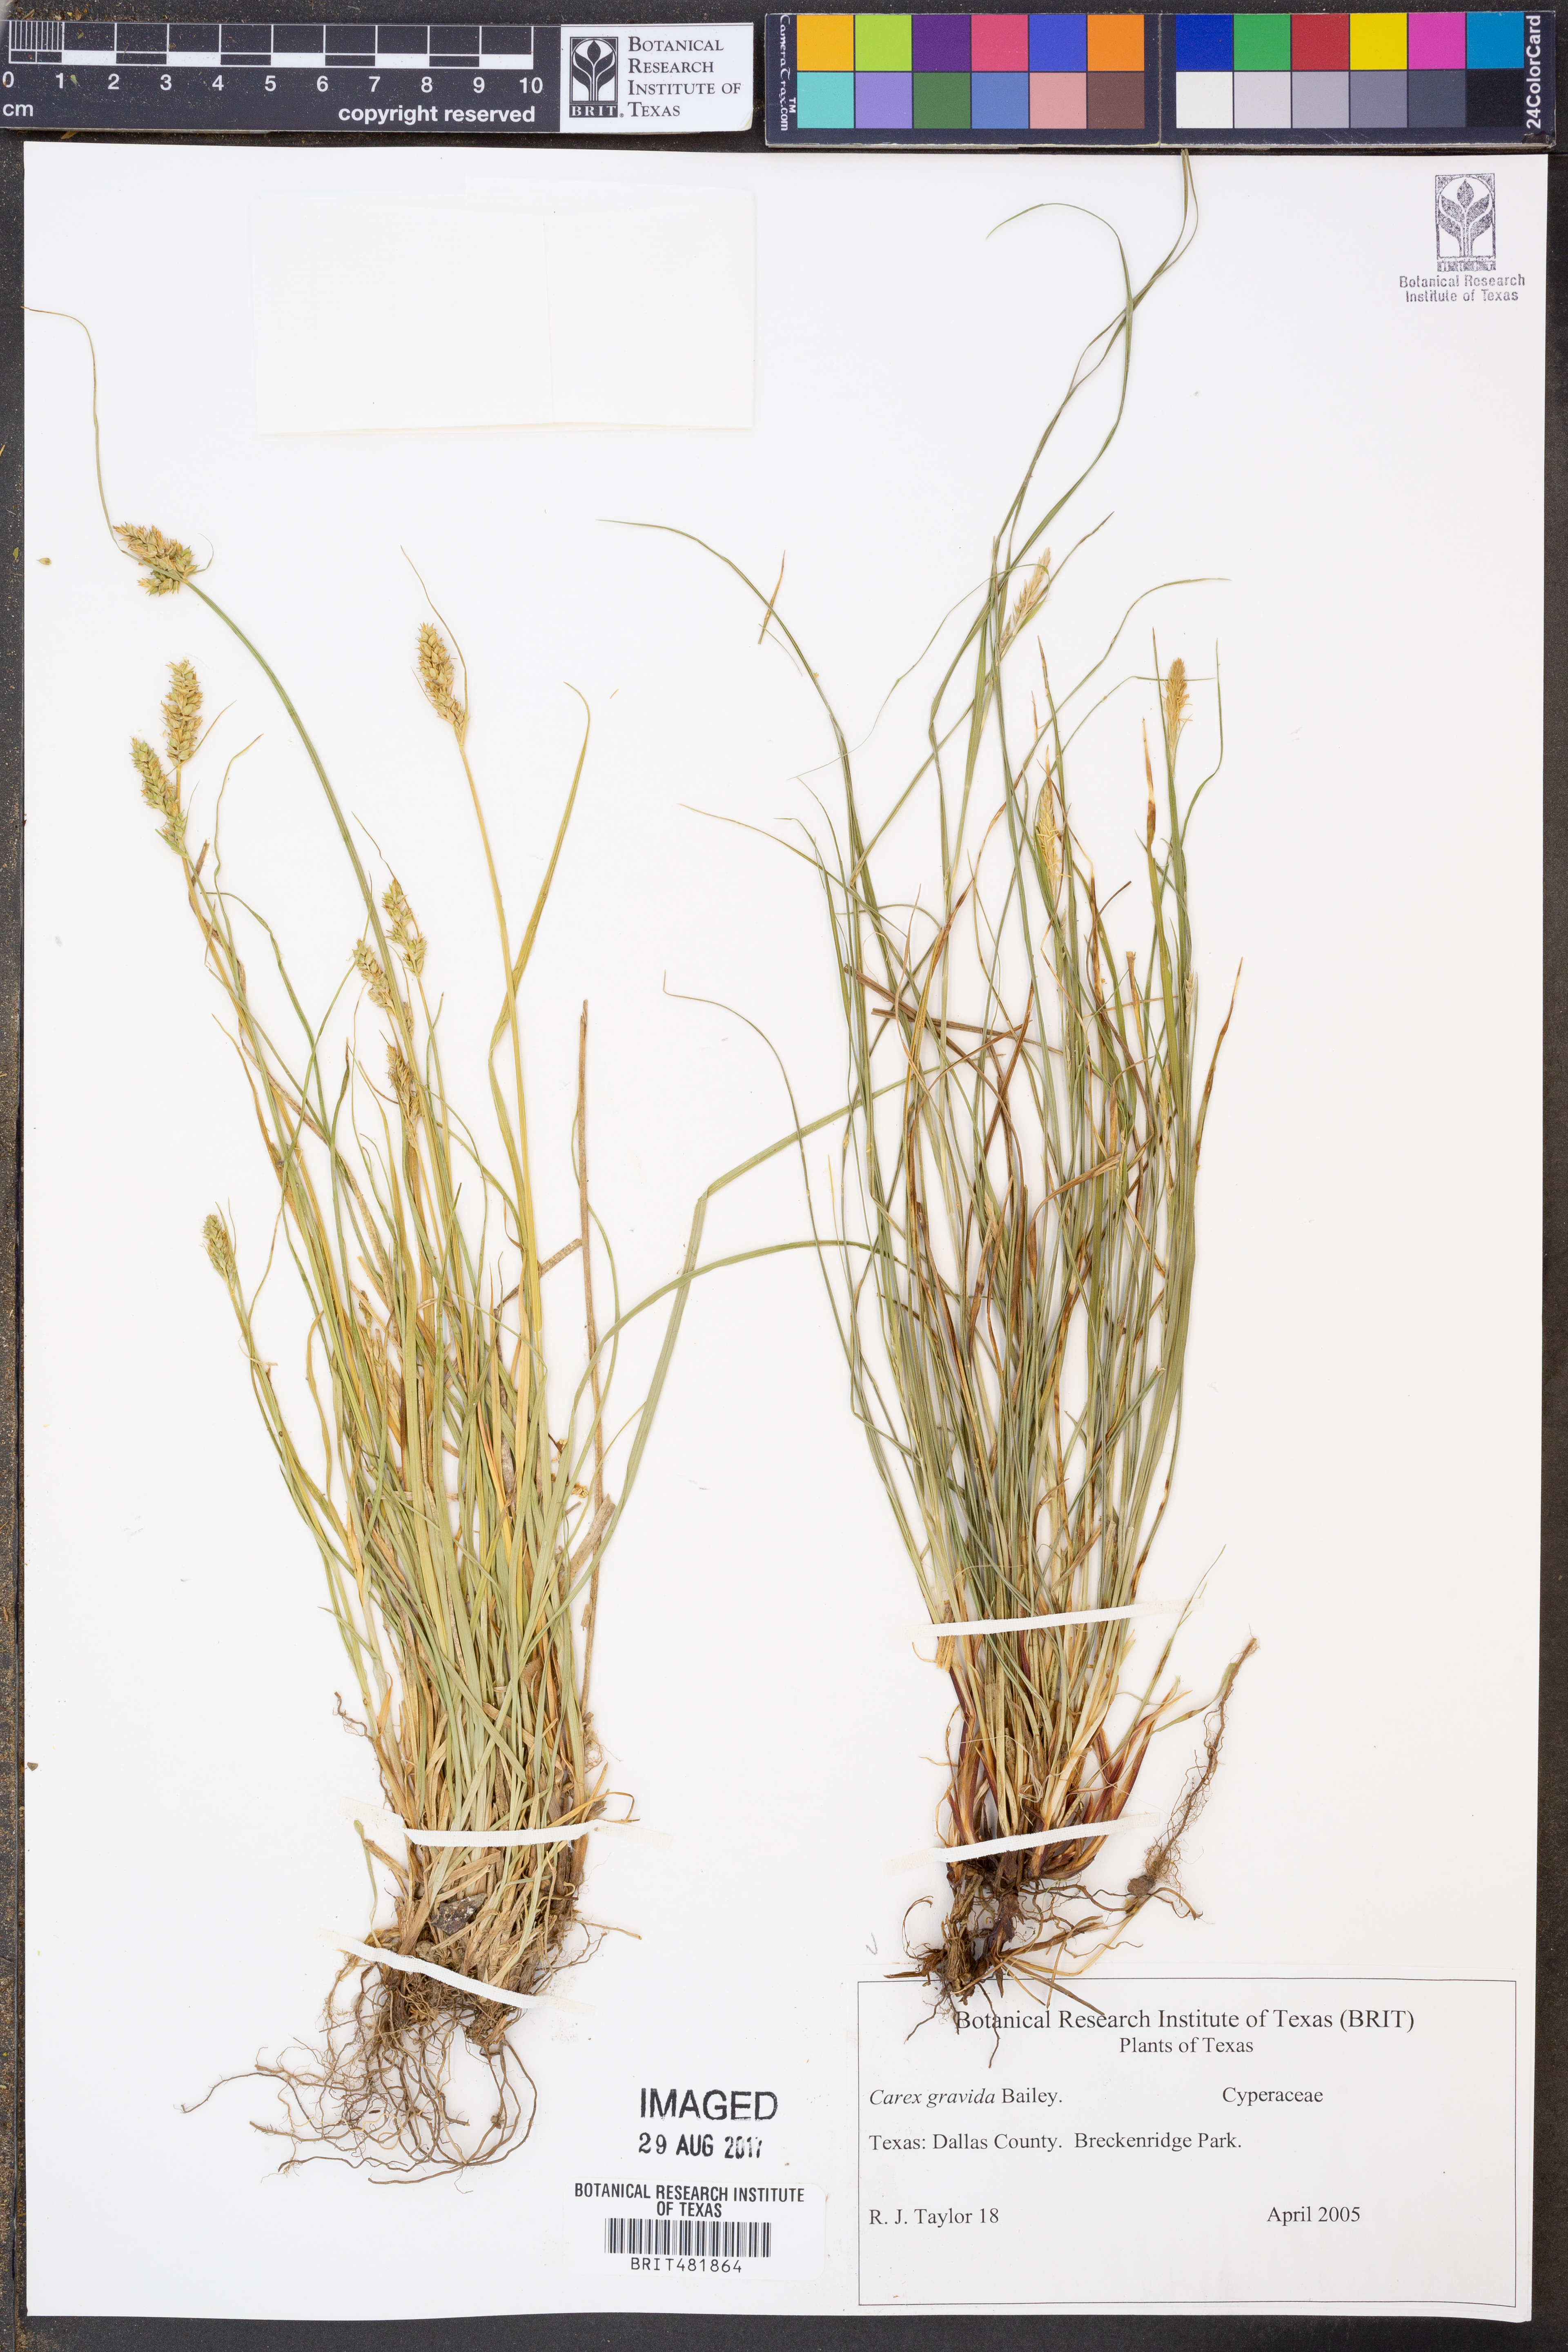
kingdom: Plantae
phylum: Tracheophyta
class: Liliopsida
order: Poales
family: Cyperaceae
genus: Carex
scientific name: Carex gravida
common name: Heavy sedge
